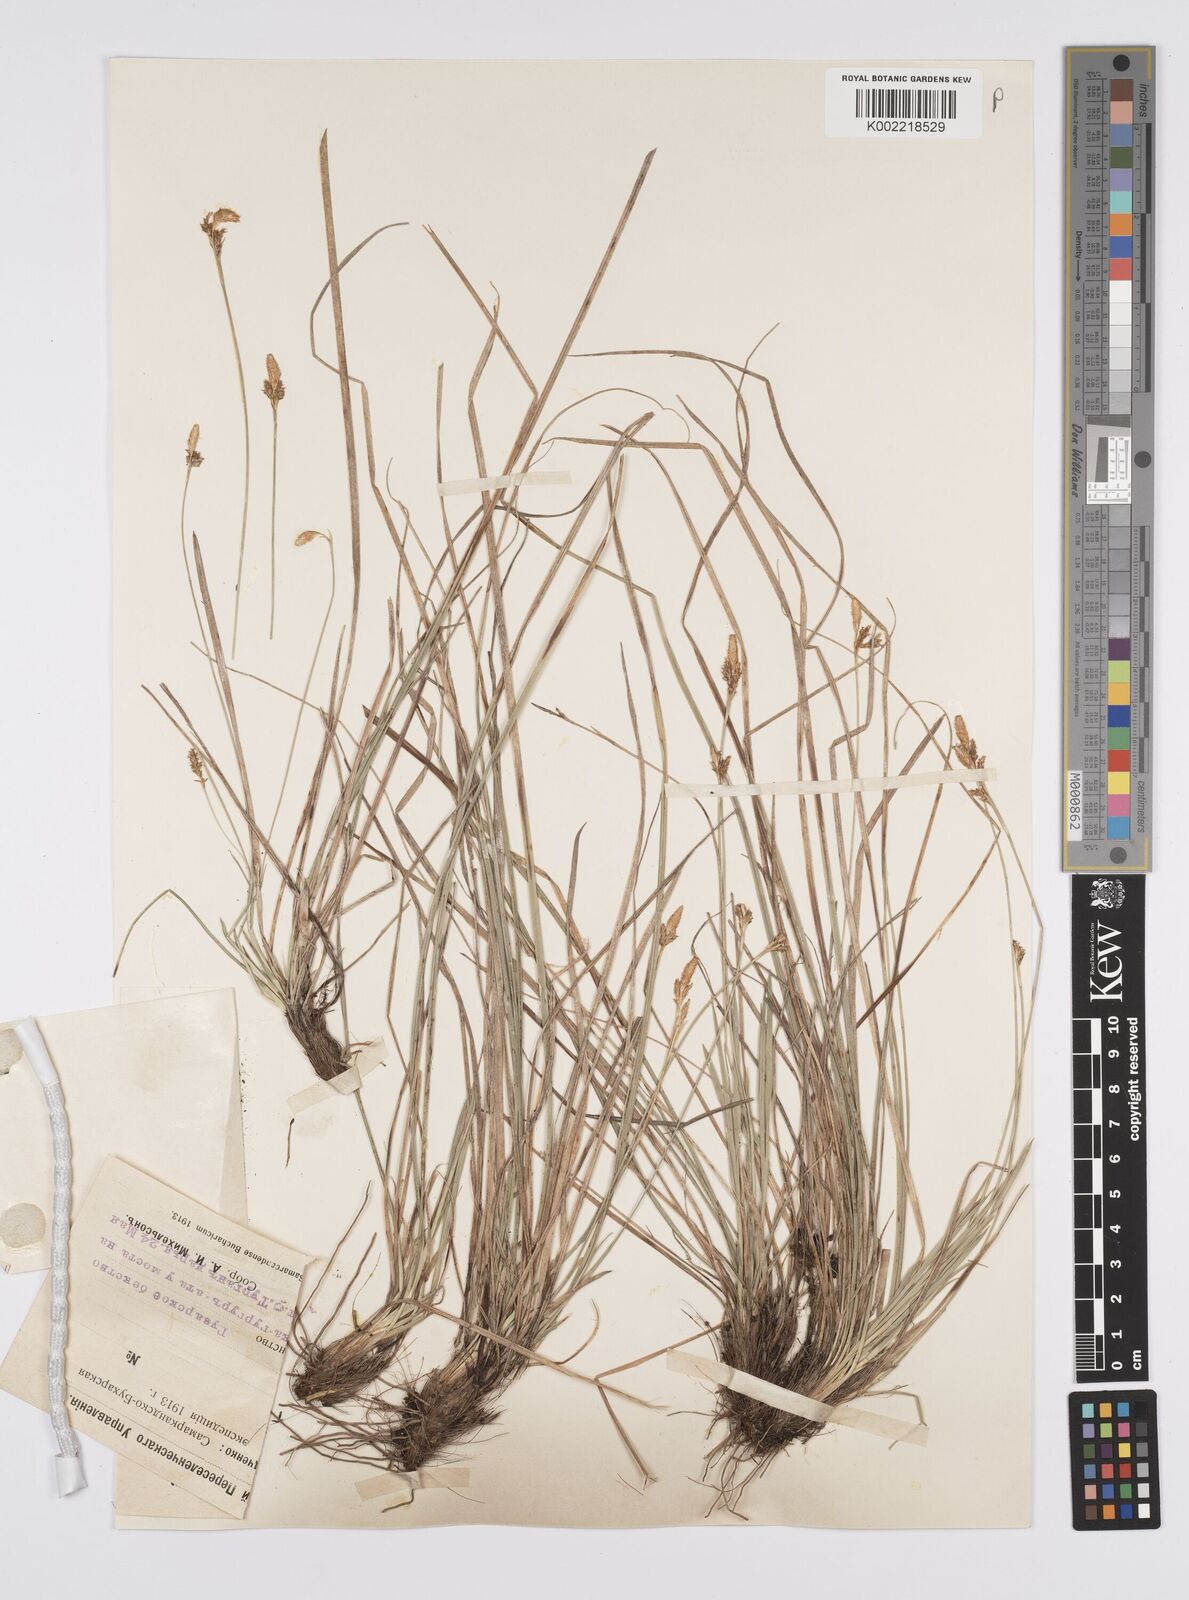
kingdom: Plantae
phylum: Tracheophyta
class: Liliopsida
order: Poales
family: Cyperaceae
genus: Carex
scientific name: Carex umbrosa
